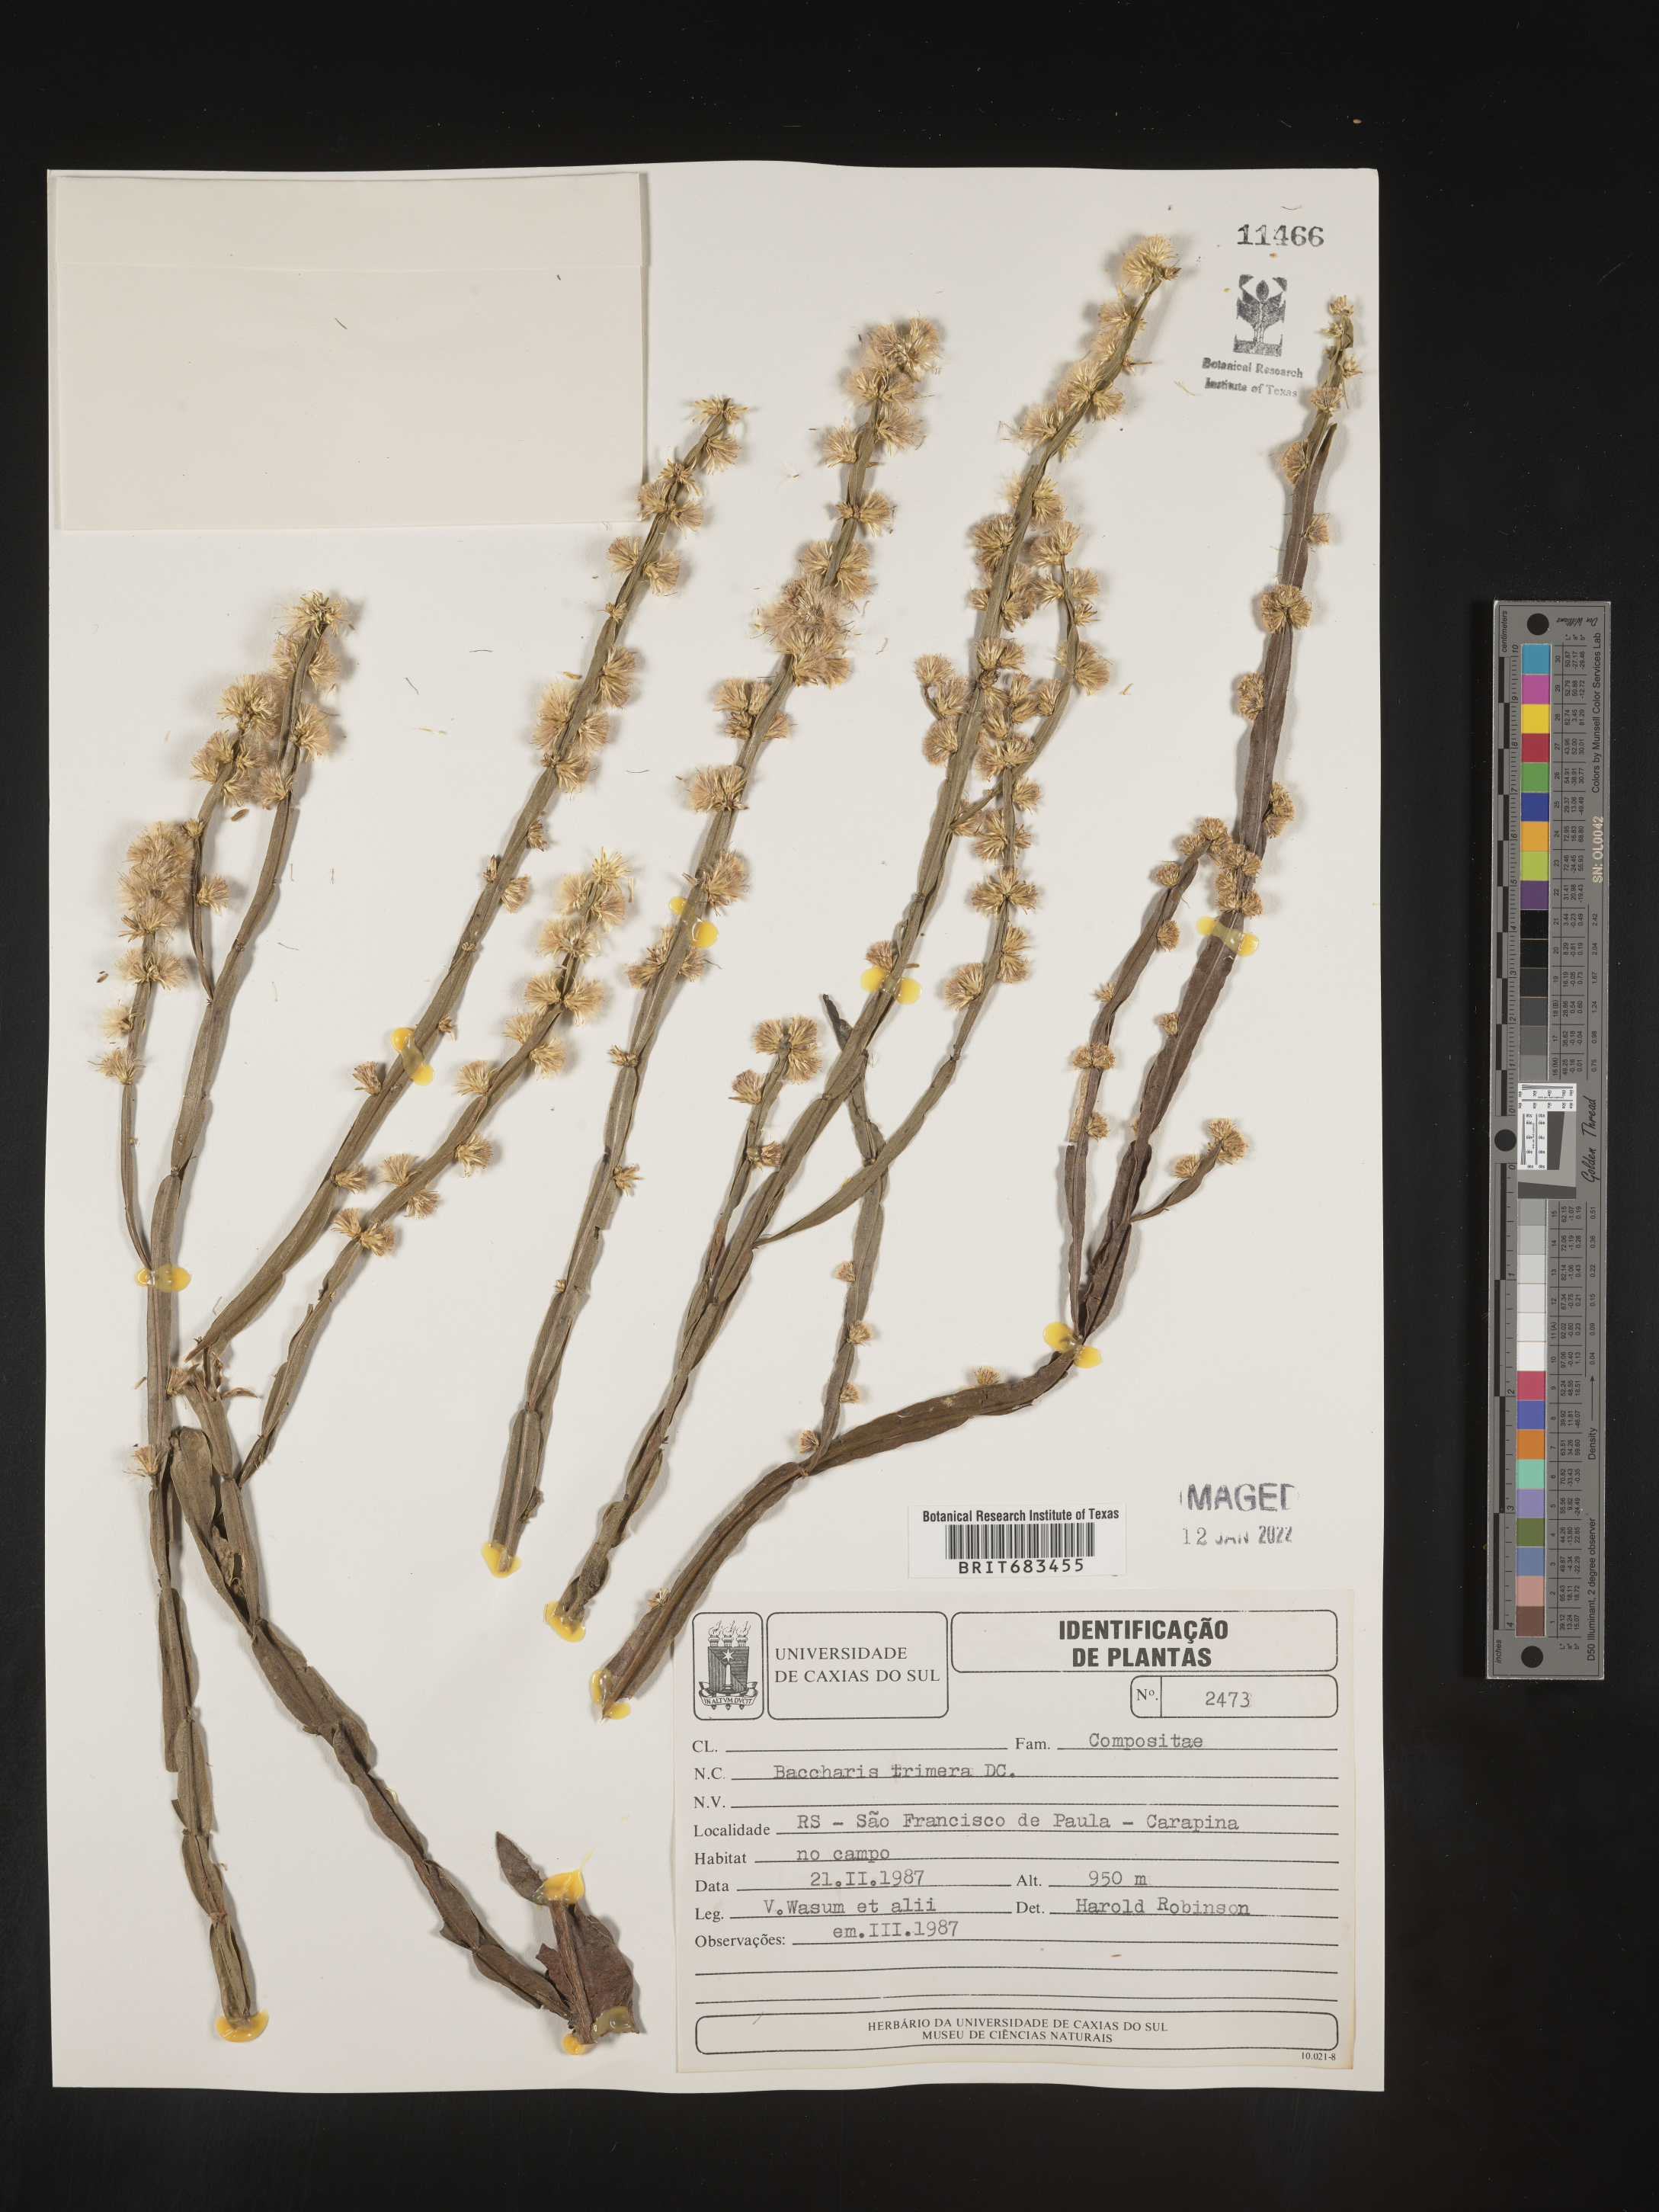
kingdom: Plantae
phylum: Tracheophyta
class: Magnoliopsida
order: Asterales
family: Asteraceae
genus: Baccharis
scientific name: Baccharis
